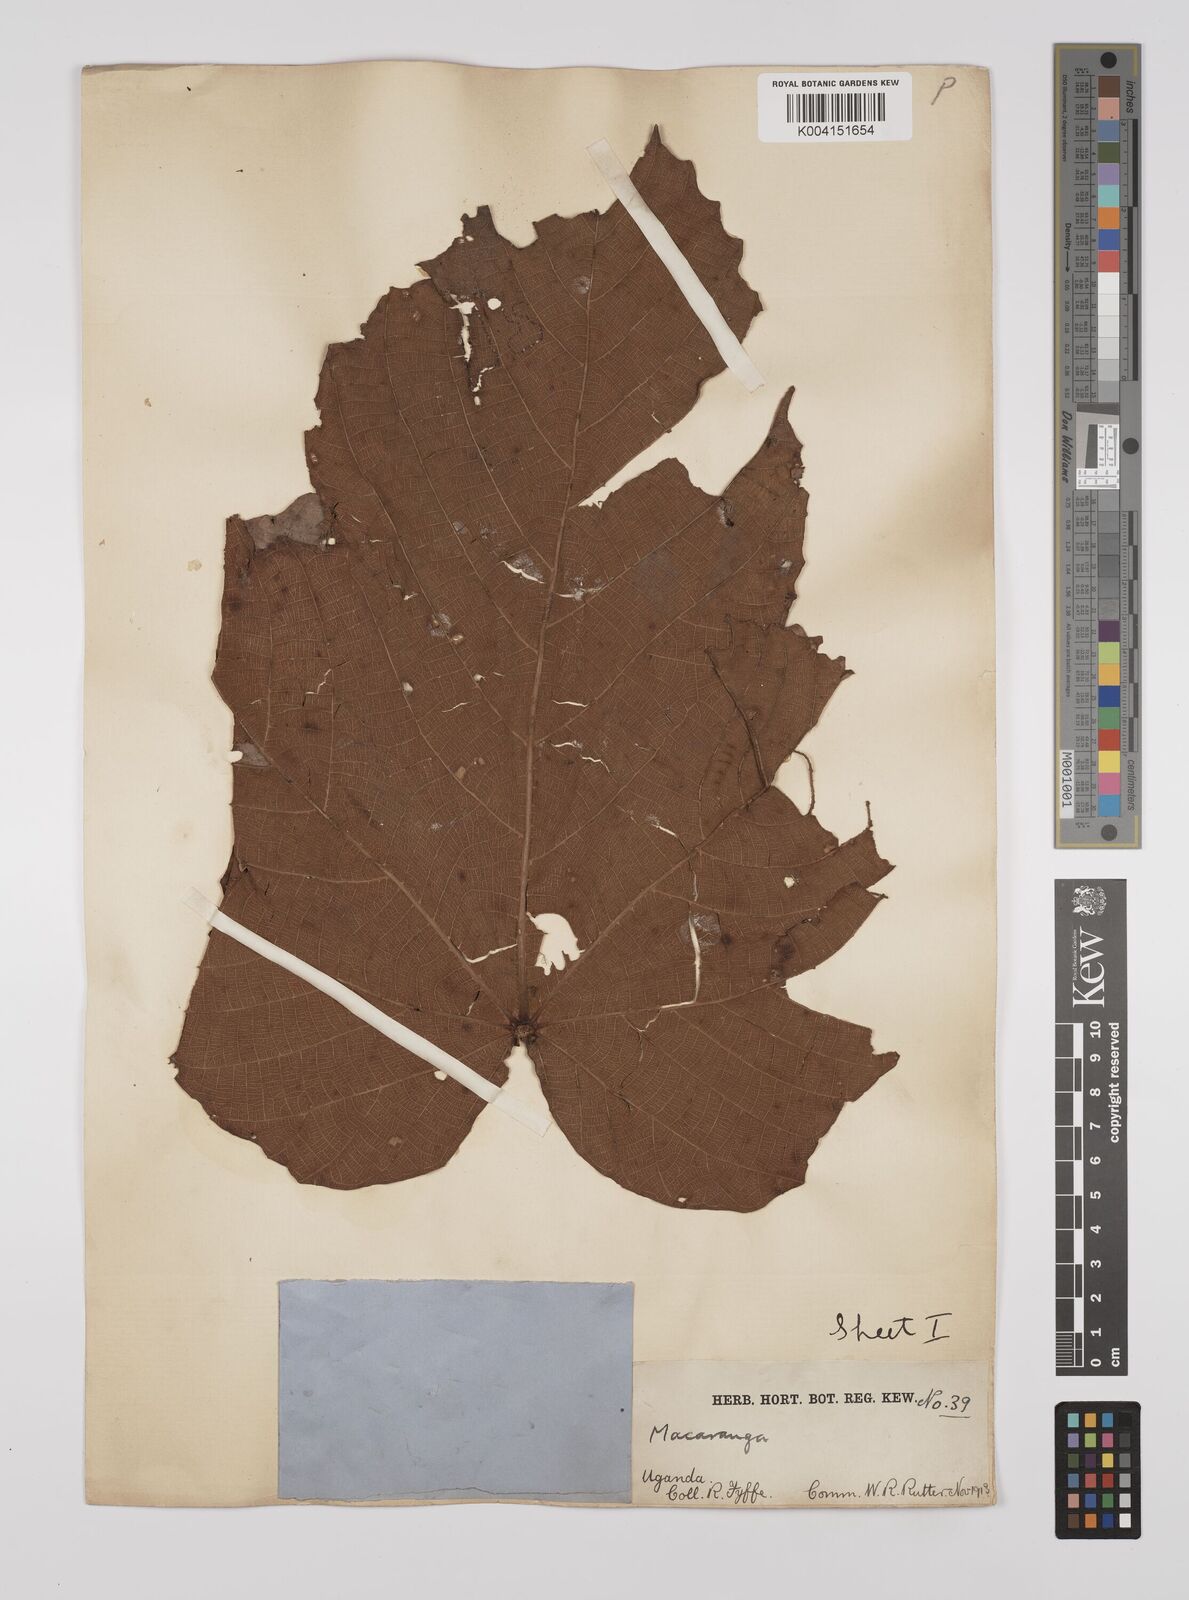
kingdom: Plantae
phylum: Tracheophyta
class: Magnoliopsida
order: Malpighiales
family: Euphorbiaceae
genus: Macaranga
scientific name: Macaranga schweinfurthii
